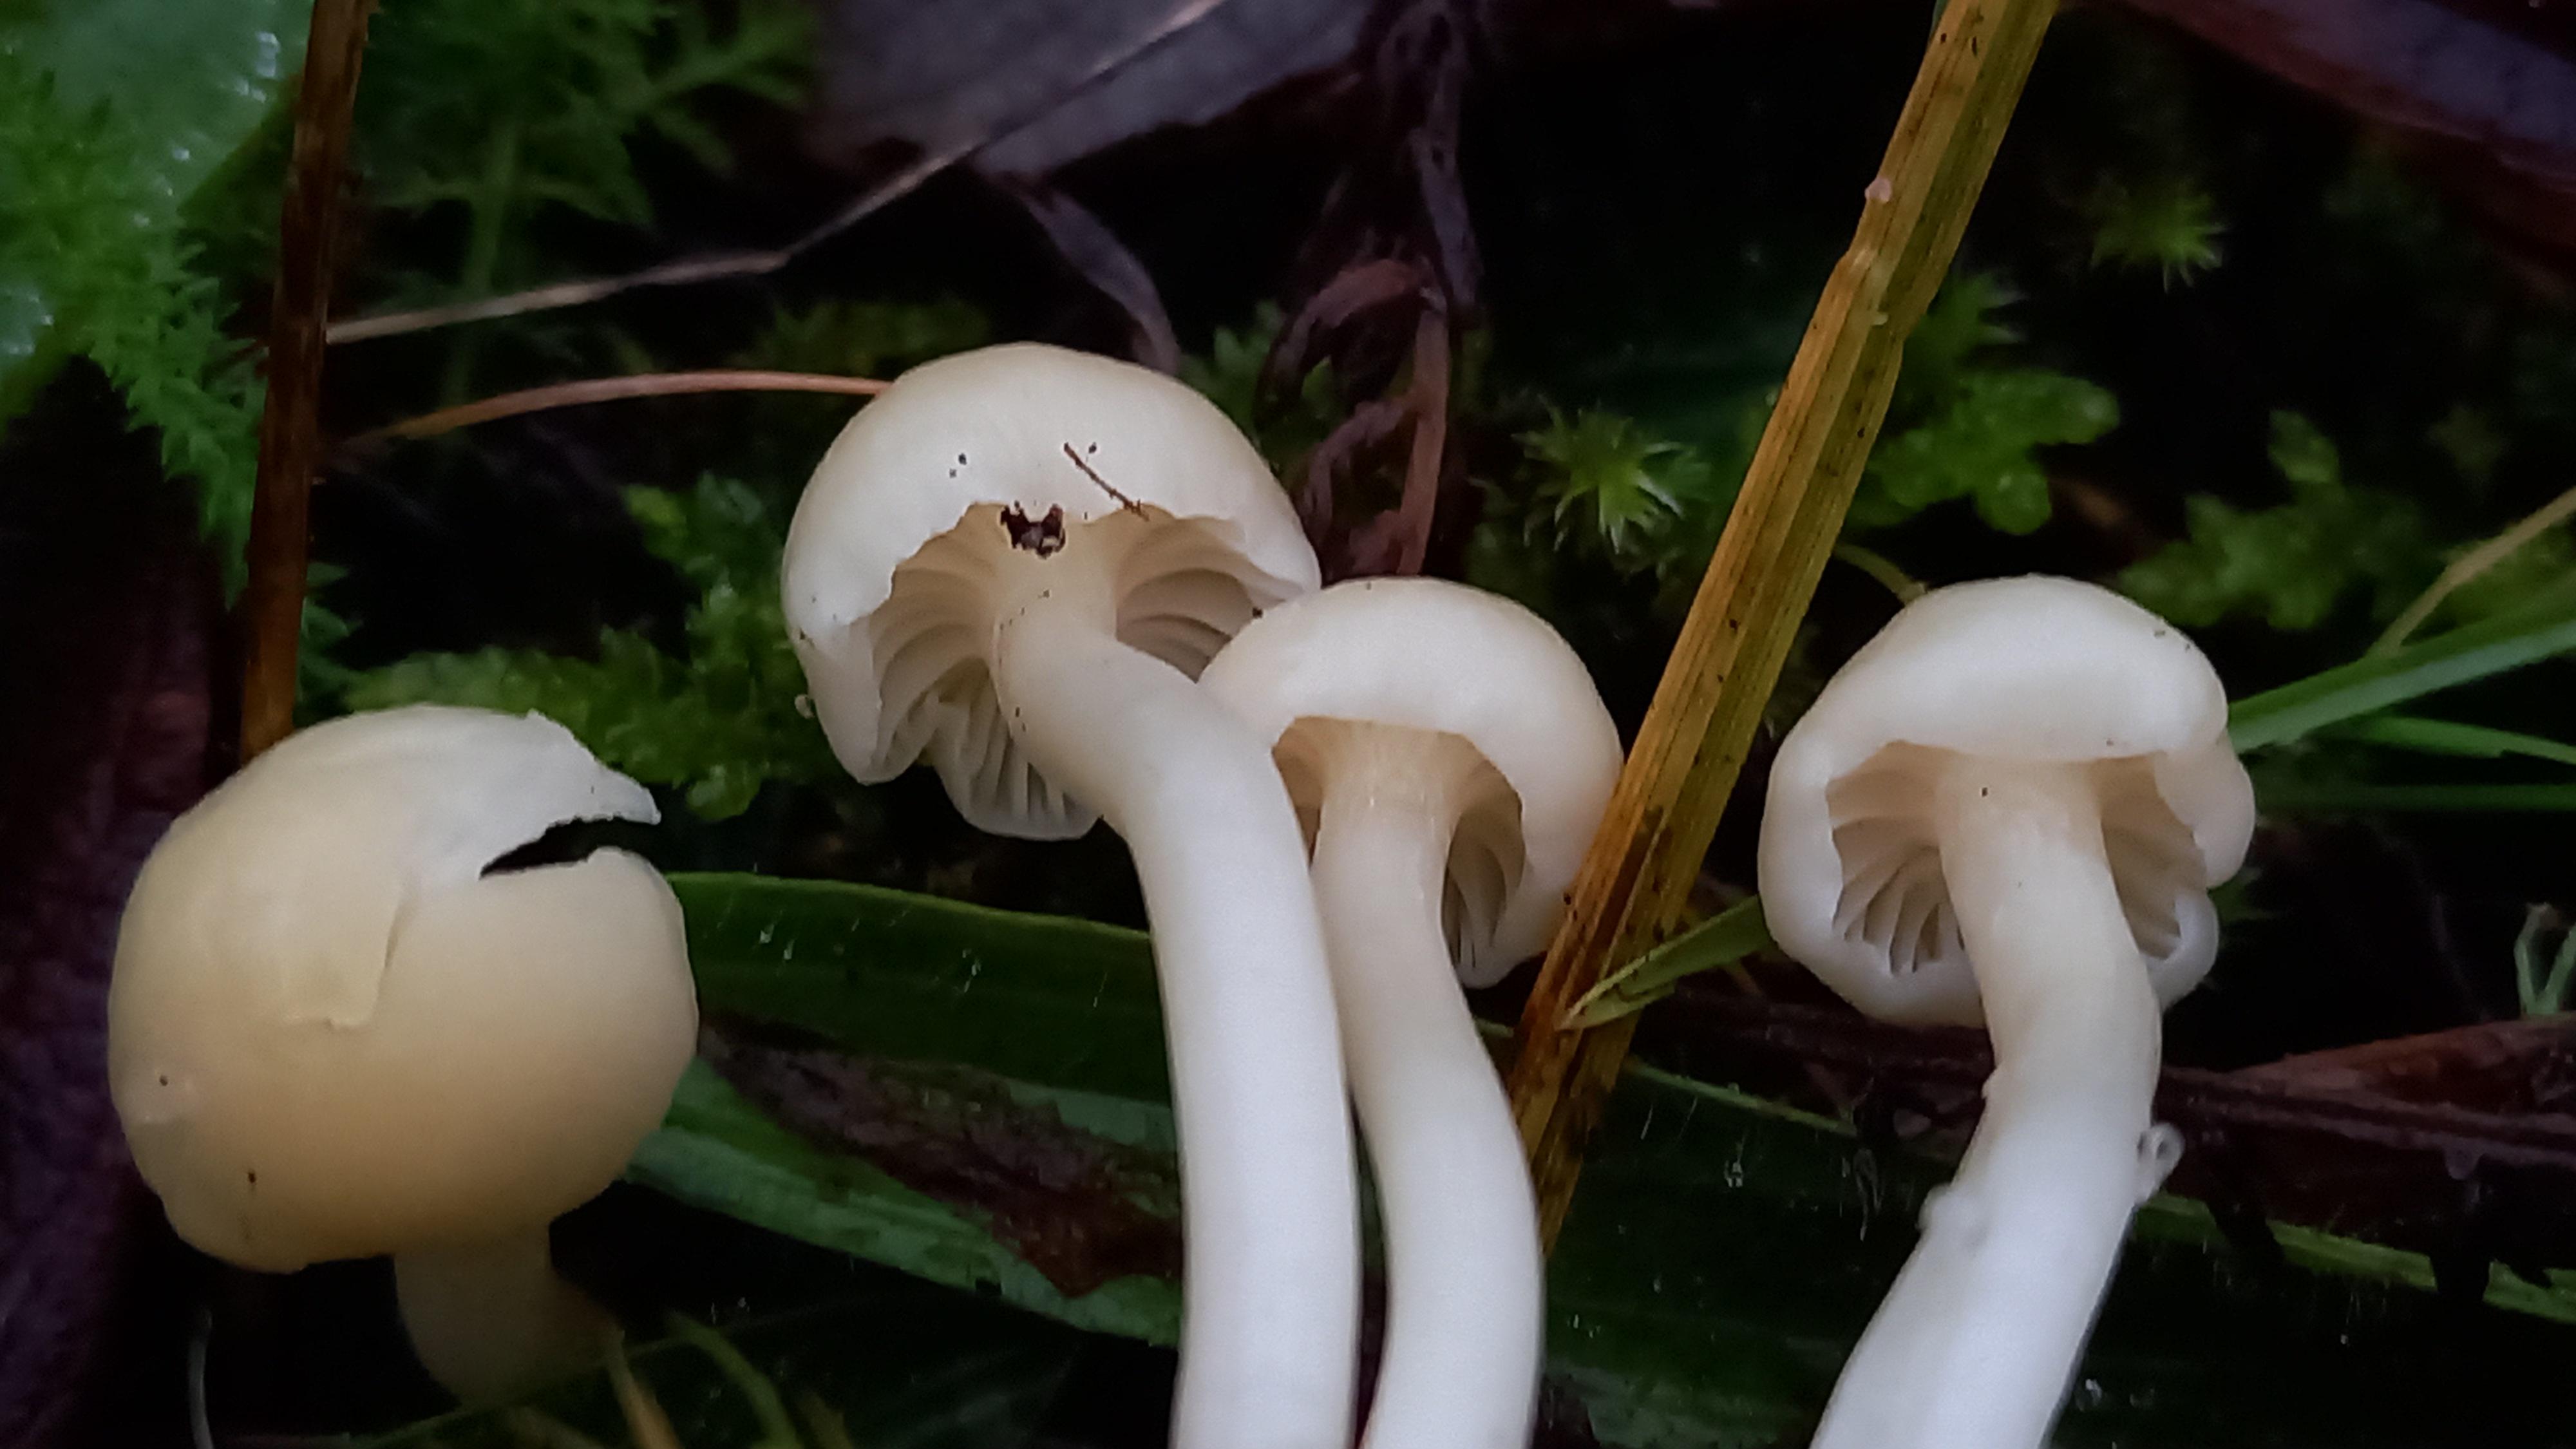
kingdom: Fungi
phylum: Basidiomycota
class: Agaricomycetes
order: Agaricales
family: Hygrophoraceae
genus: Cuphophyllus
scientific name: Cuphophyllus russocoriaceus
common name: ruslæder-vokshat
